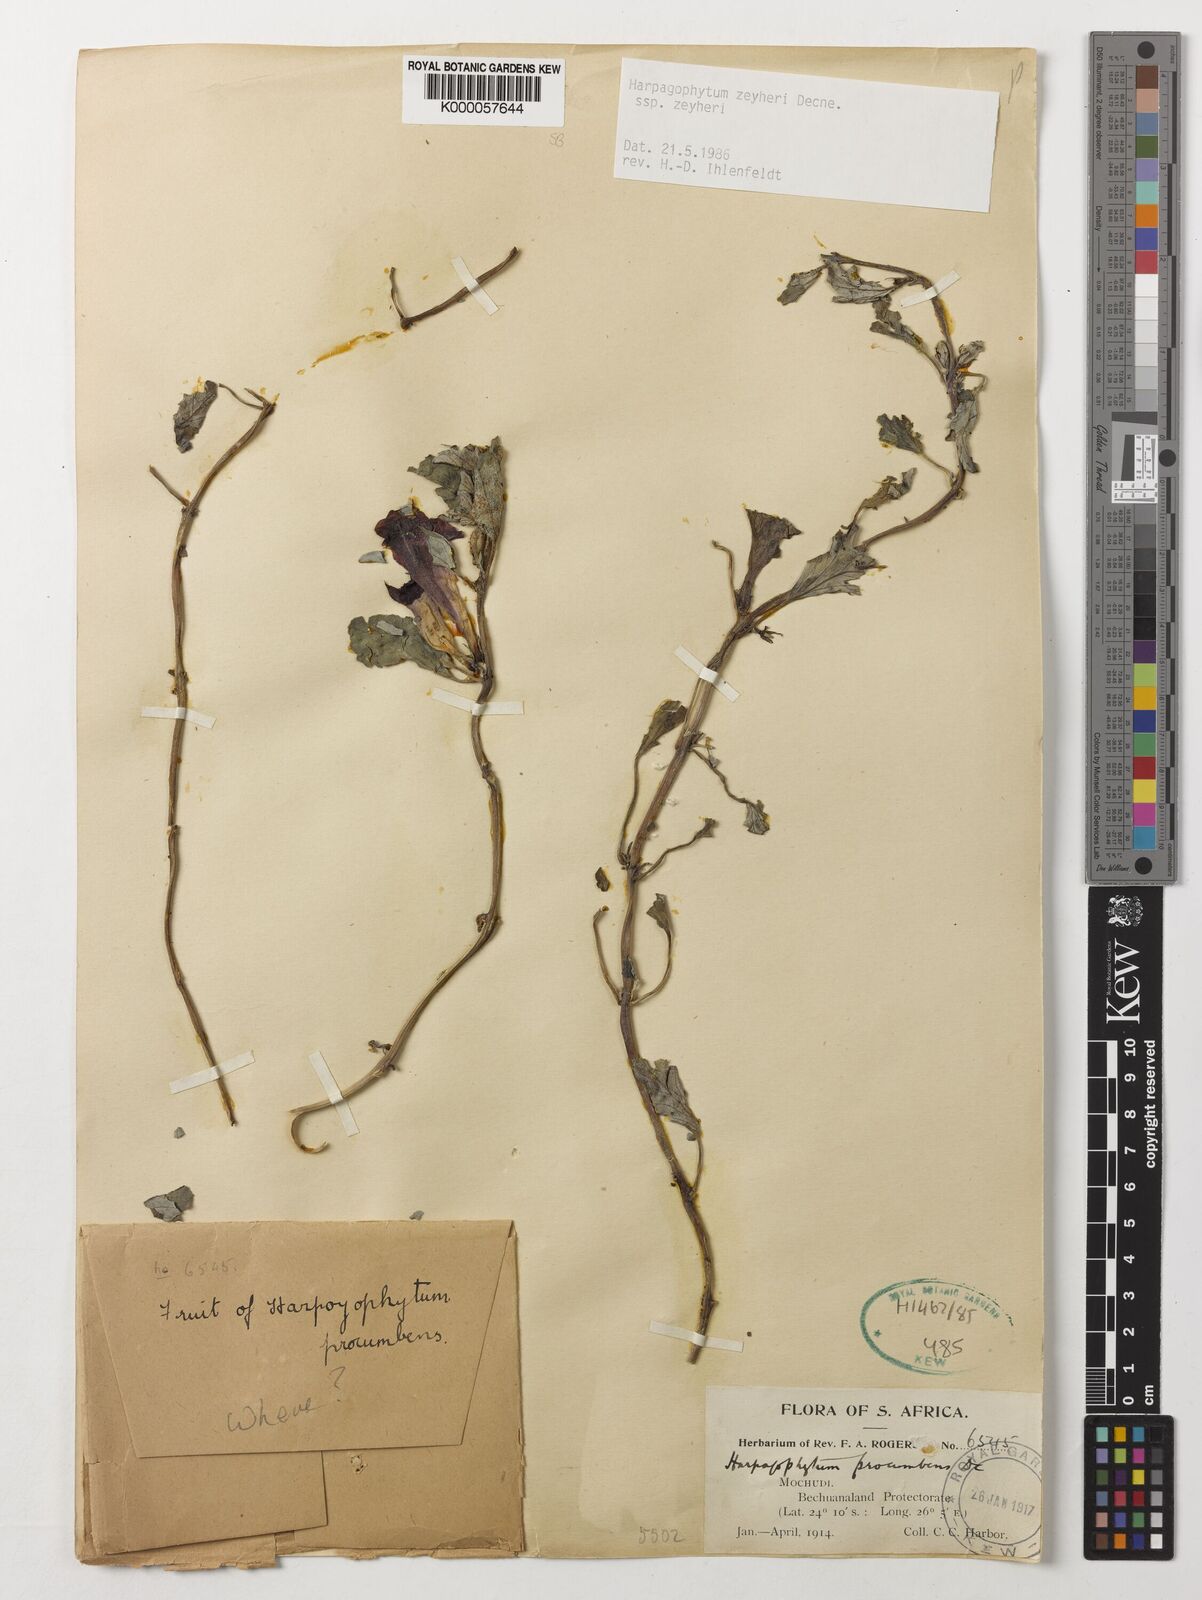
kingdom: Plantae
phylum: Tracheophyta
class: Magnoliopsida
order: Lamiales
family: Pedaliaceae
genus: Harpagophytum
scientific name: Harpagophytum zeyheri
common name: Grappleplant
